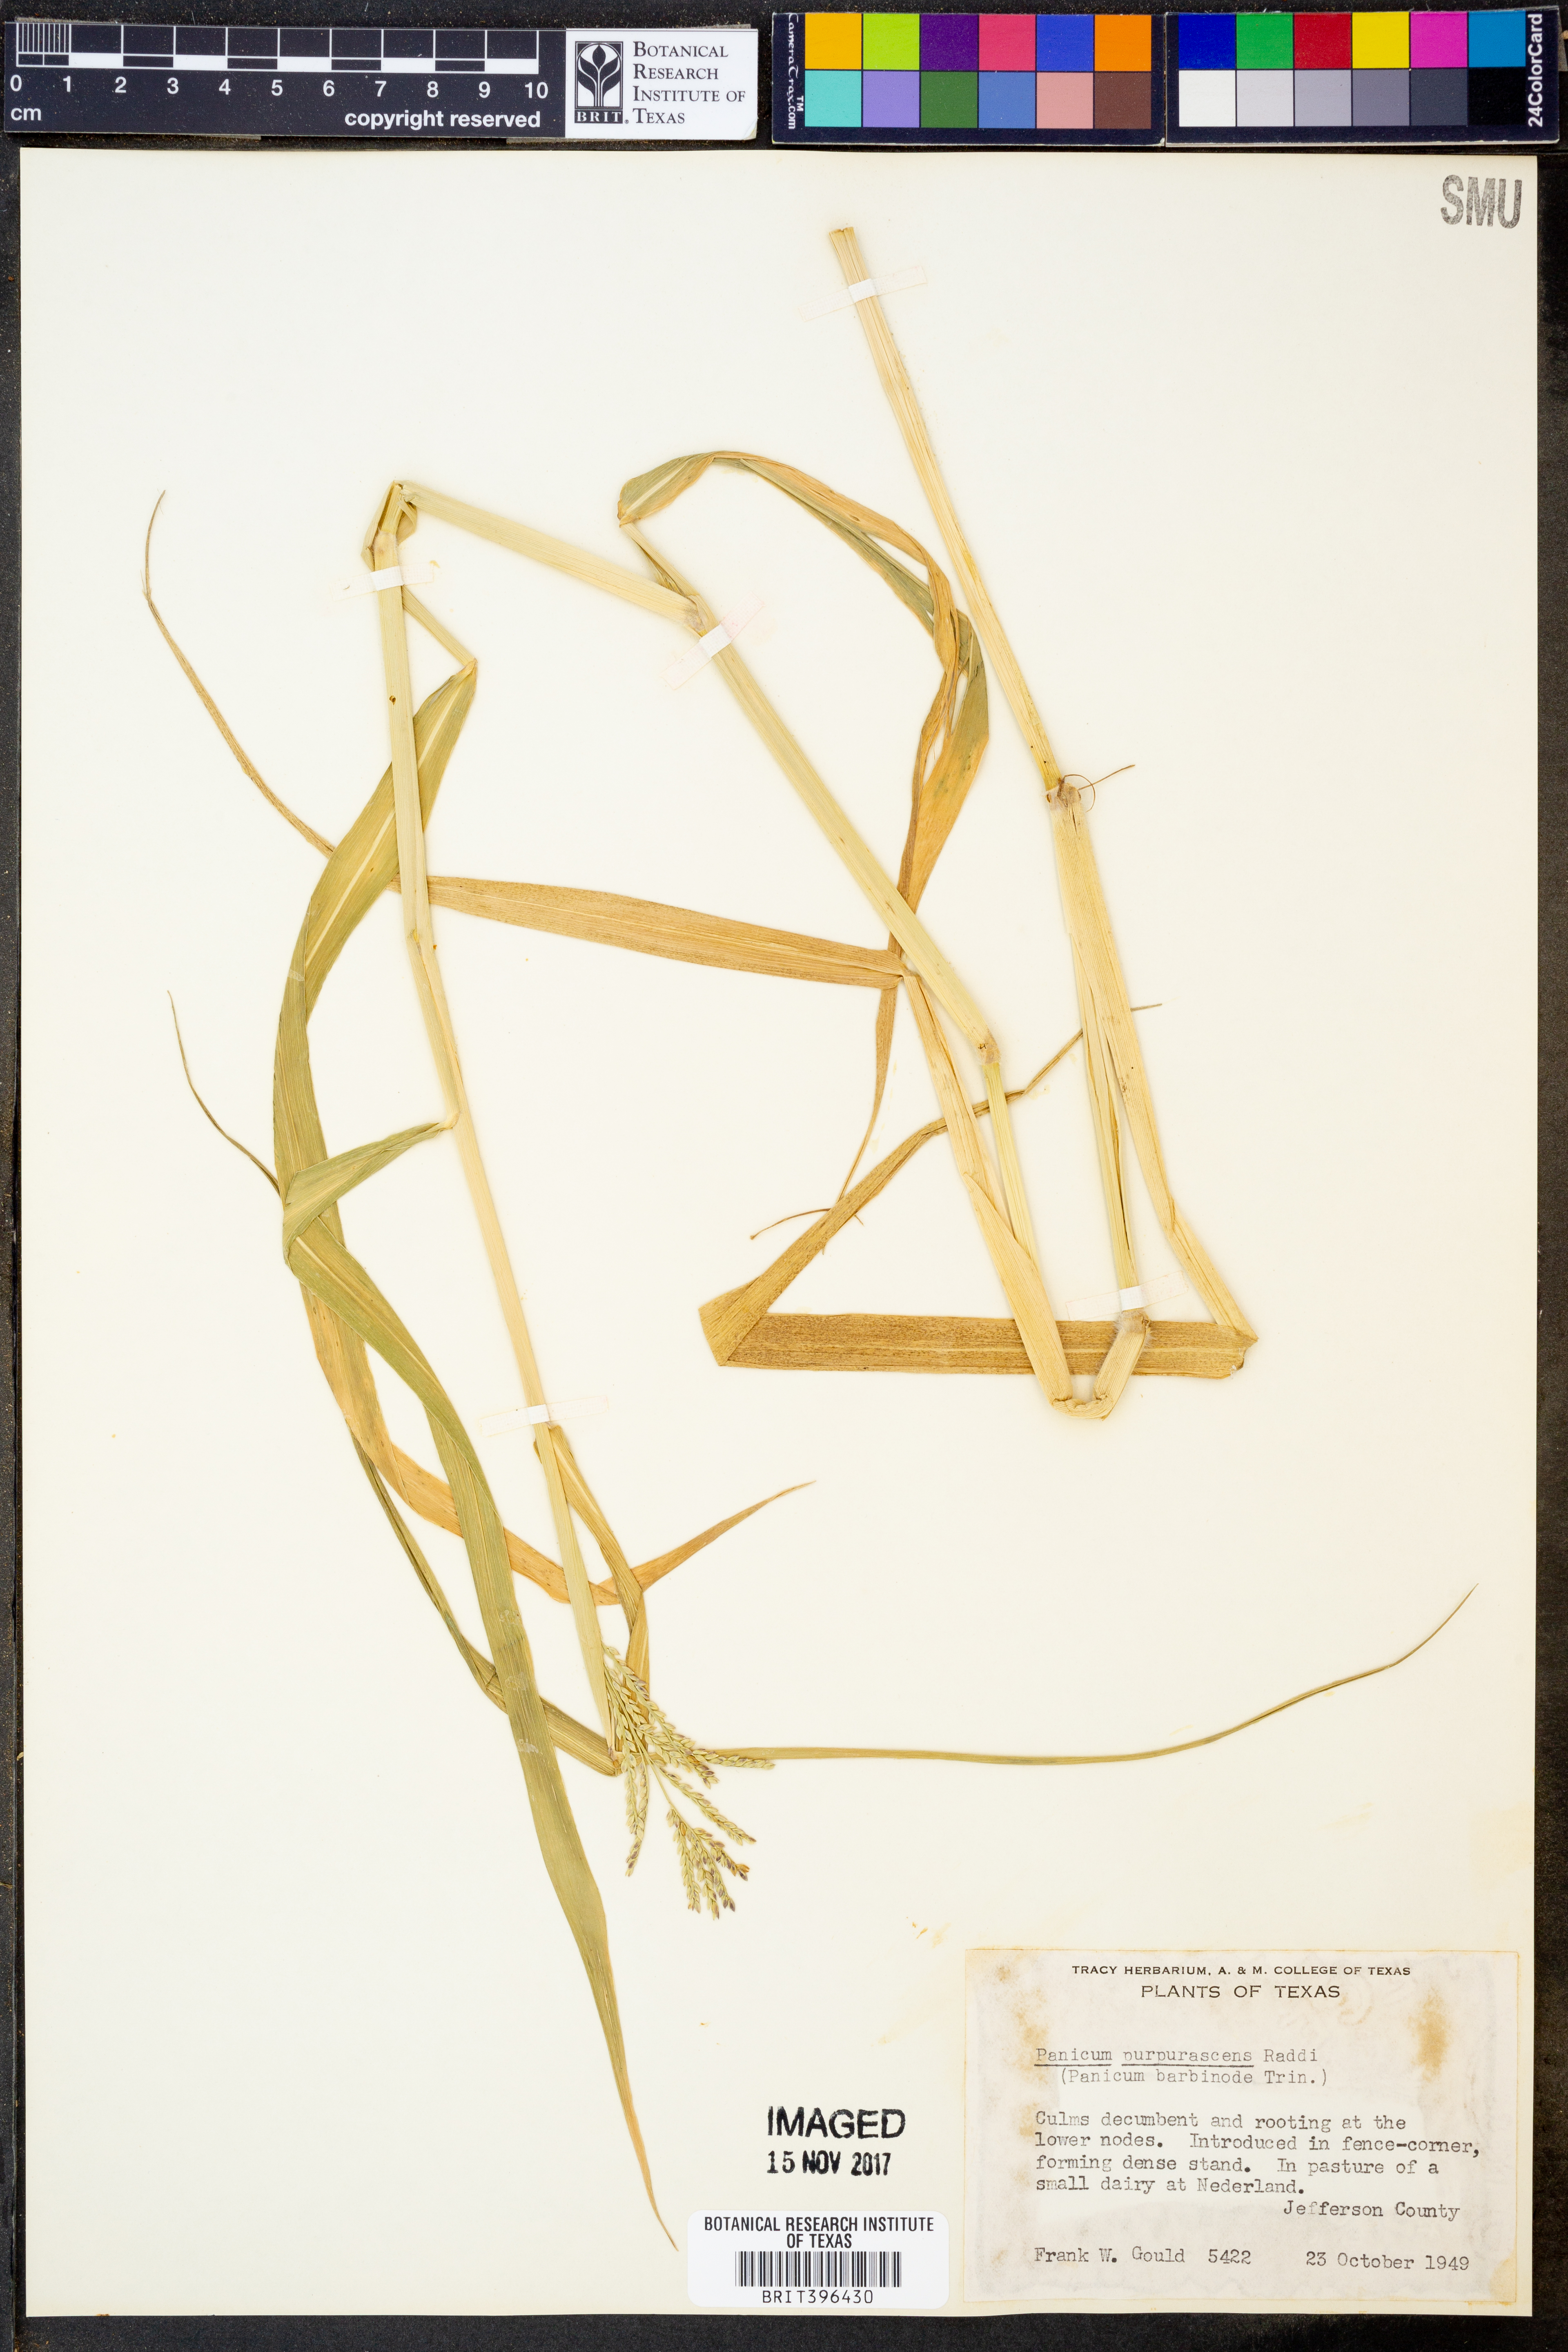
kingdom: Plantae
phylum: Tracheophyta
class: Liliopsida
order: Poales
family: Poaceae
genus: Panicum
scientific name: Panicum fluviicola
